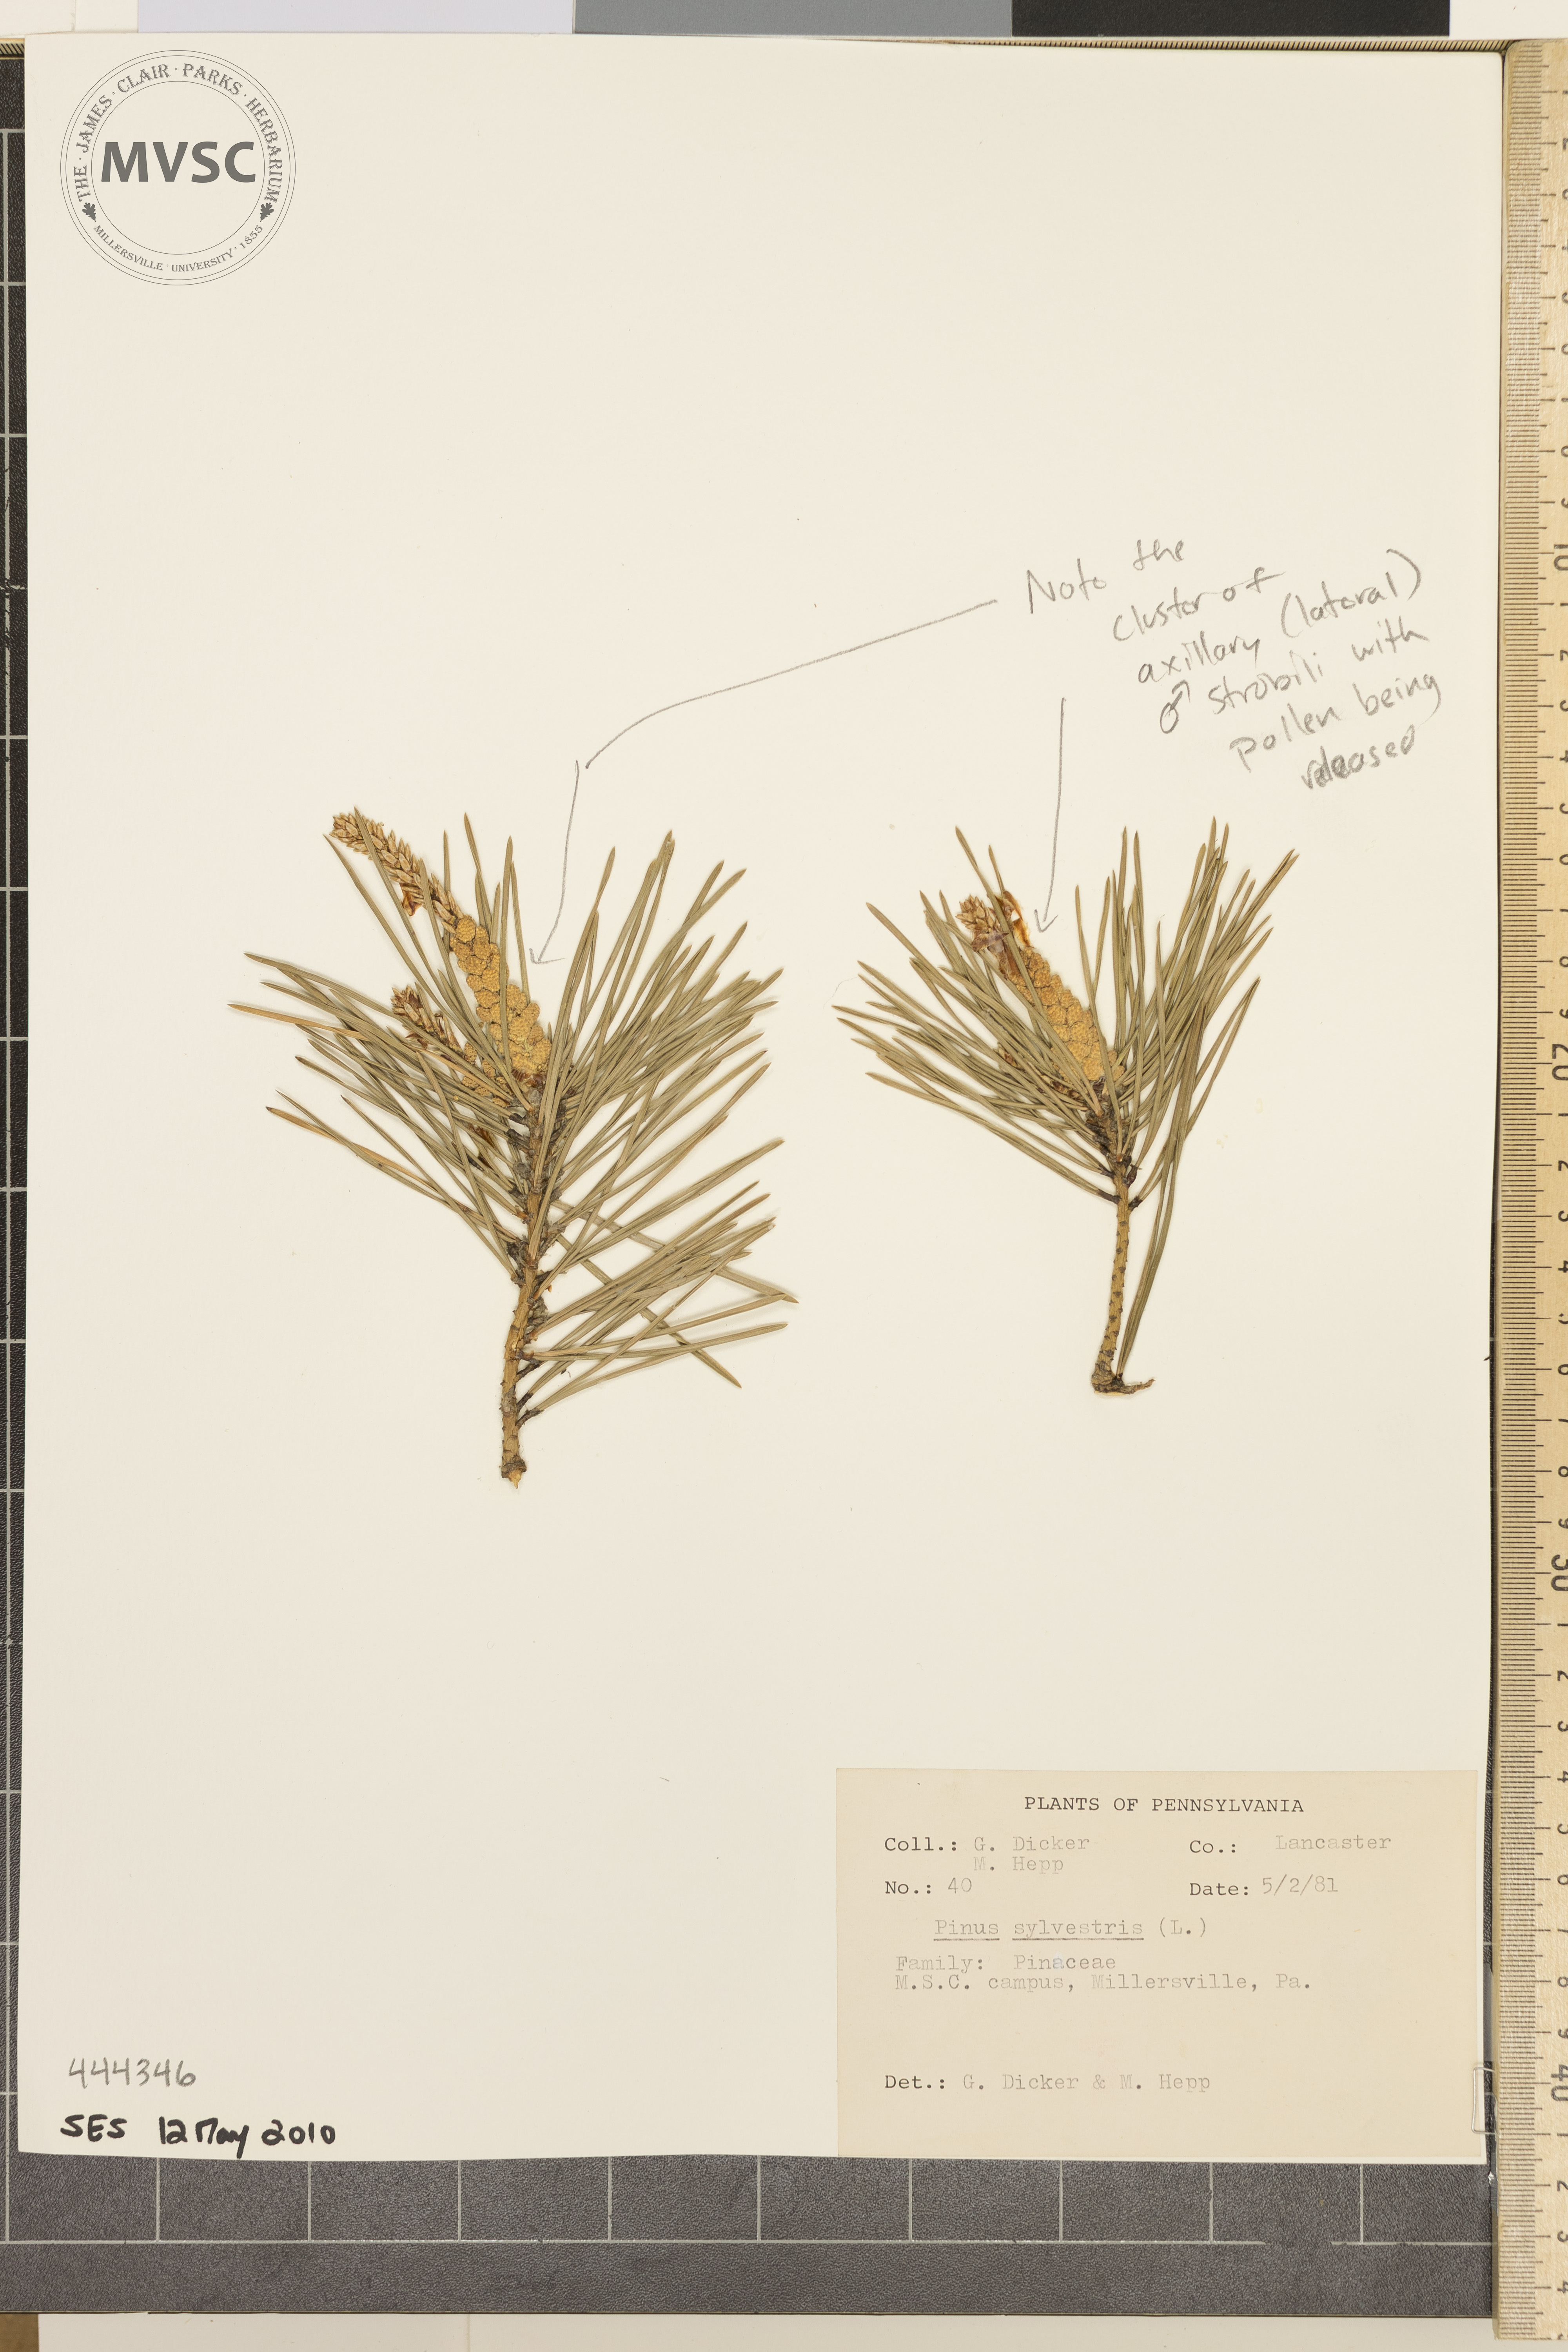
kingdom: Plantae
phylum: Tracheophyta
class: Pinopsida
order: Pinales
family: Pinaceae
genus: Pinus
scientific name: Pinus sylvestris
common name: Scots pine
